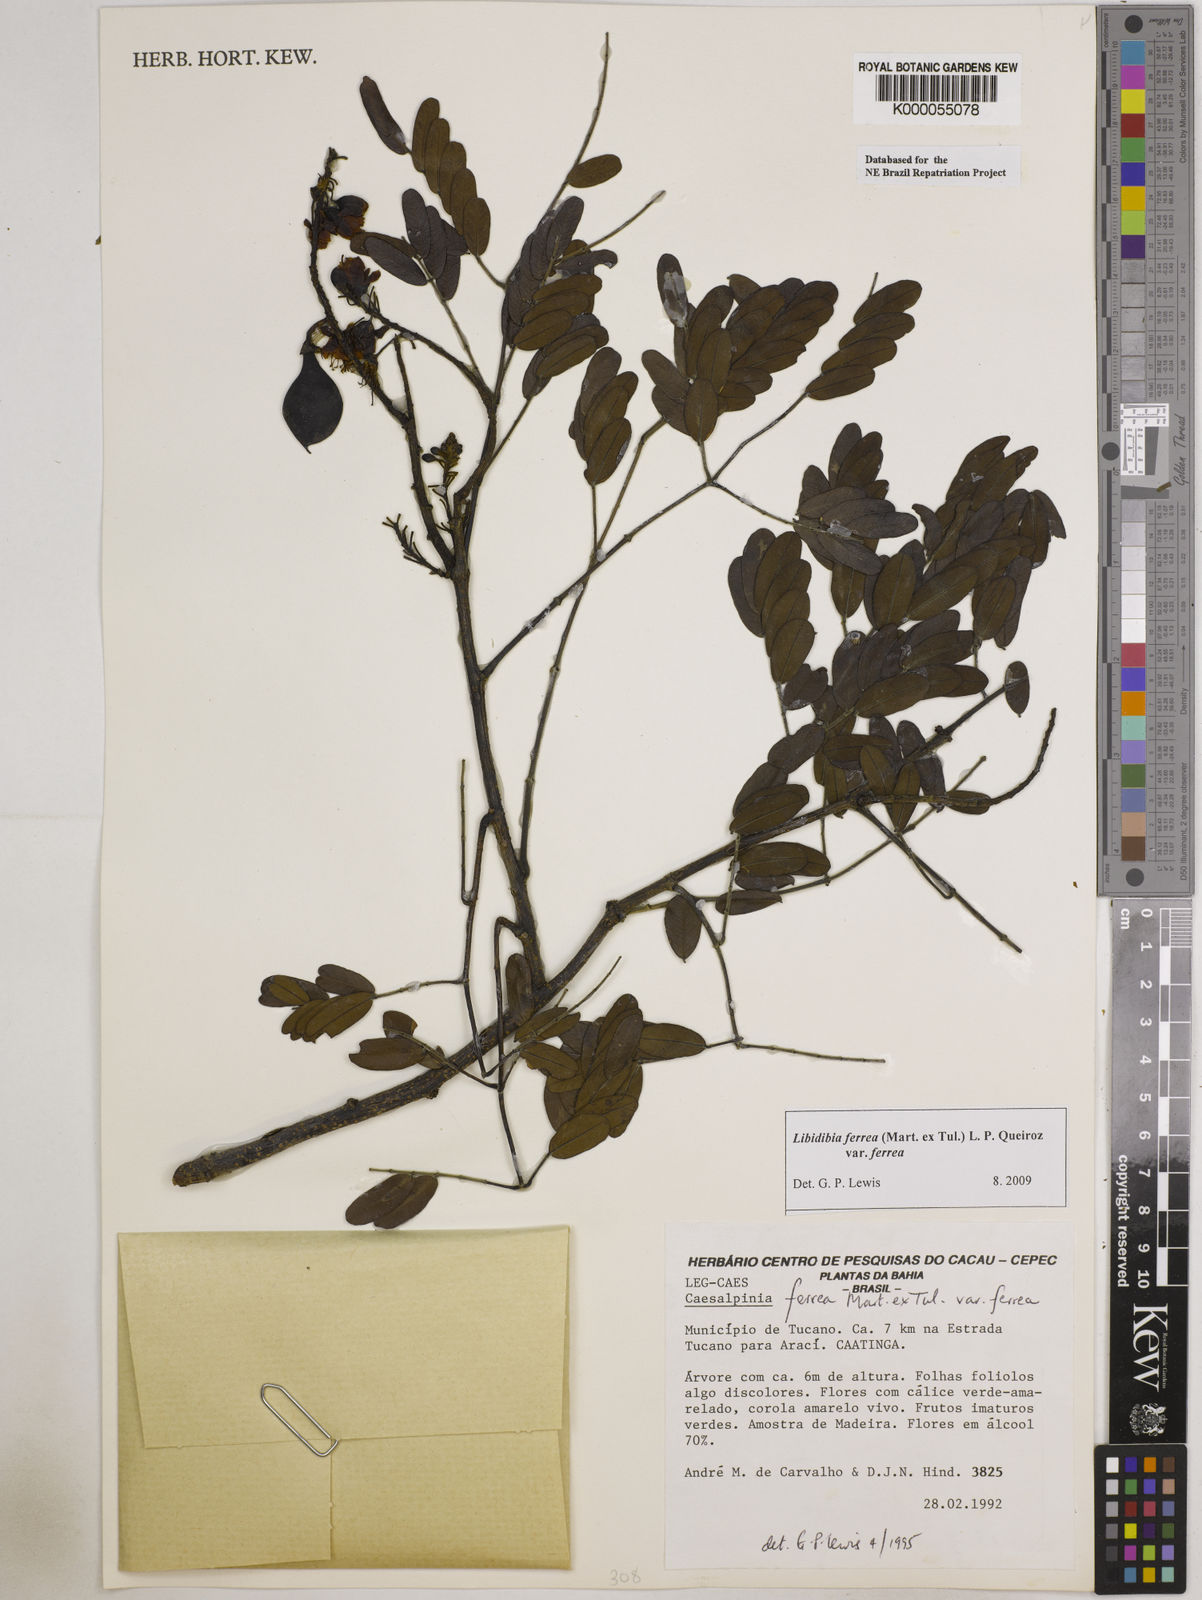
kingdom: Plantae
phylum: Tracheophyta
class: Magnoliopsida
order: Fabales
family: Fabaceae
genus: Libidibia
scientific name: Libidibia ferrea
